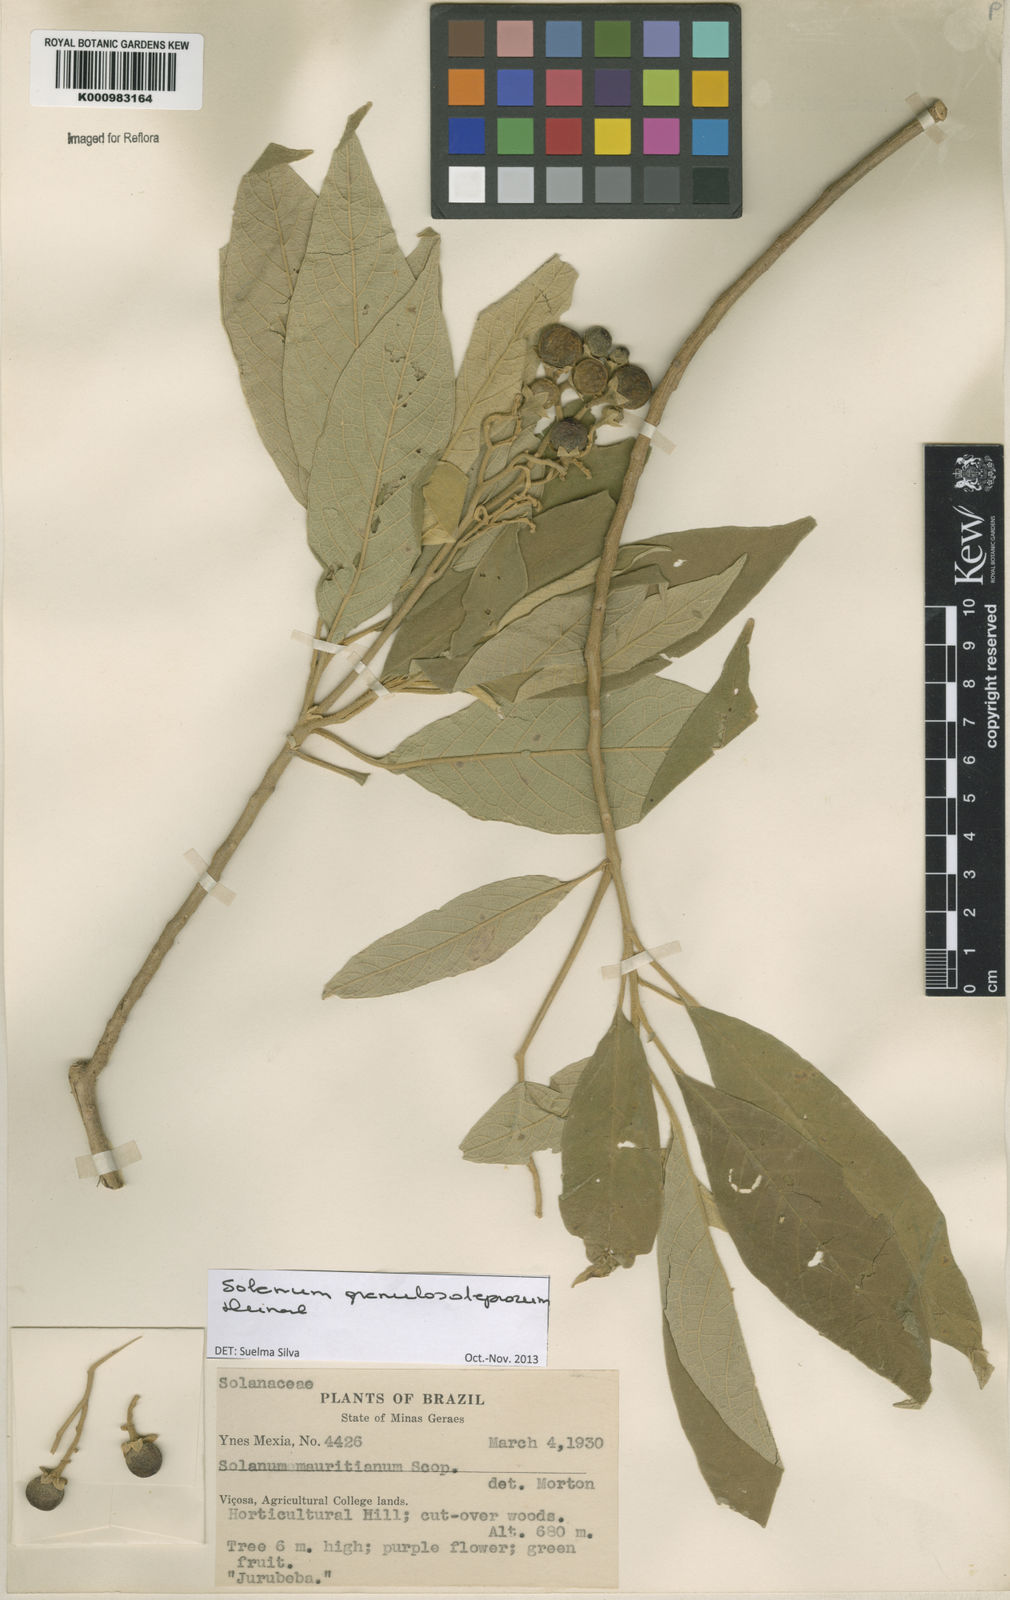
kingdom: Plantae
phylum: Tracheophyta
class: Magnoliopsida
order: Solanales
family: Solanaceae
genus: Solanum
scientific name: Solanum granulosoleprosum
